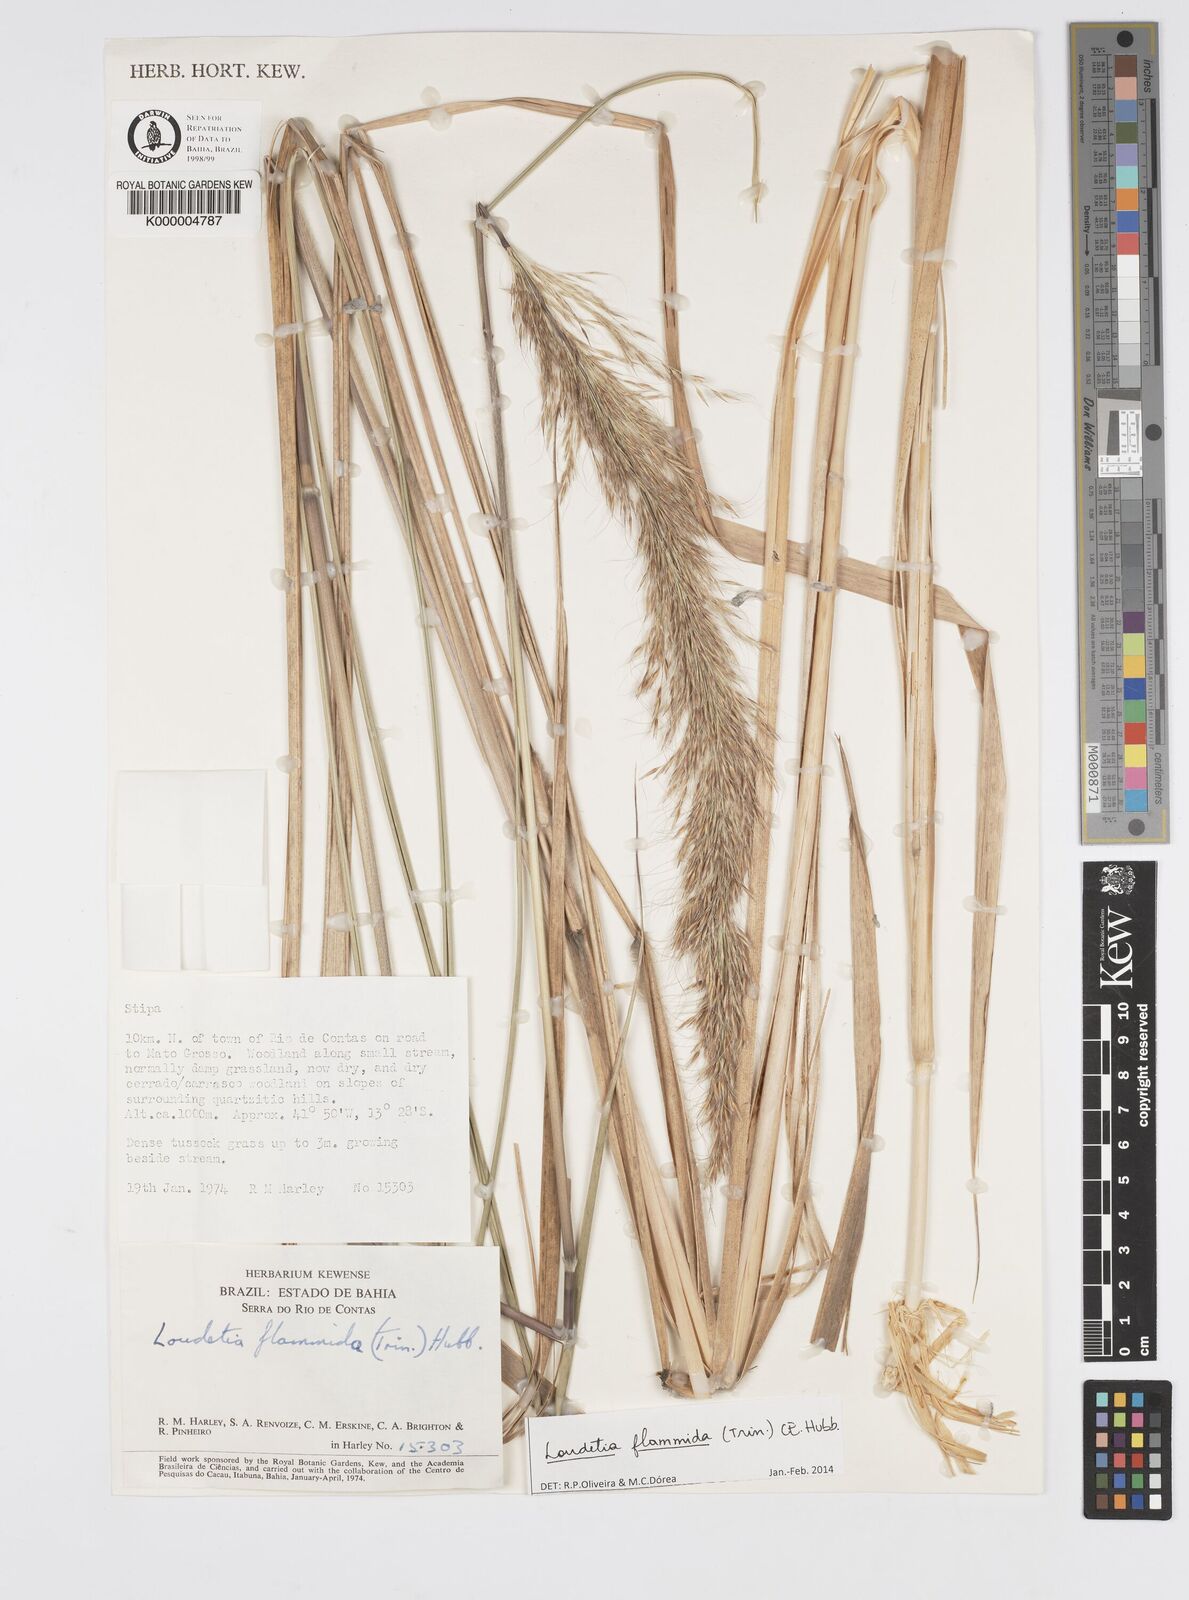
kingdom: Plantae
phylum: Tracheophyta
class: Liliopsida
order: Poales
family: Poaceae
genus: Loudetia
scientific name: Loudetia flammida
